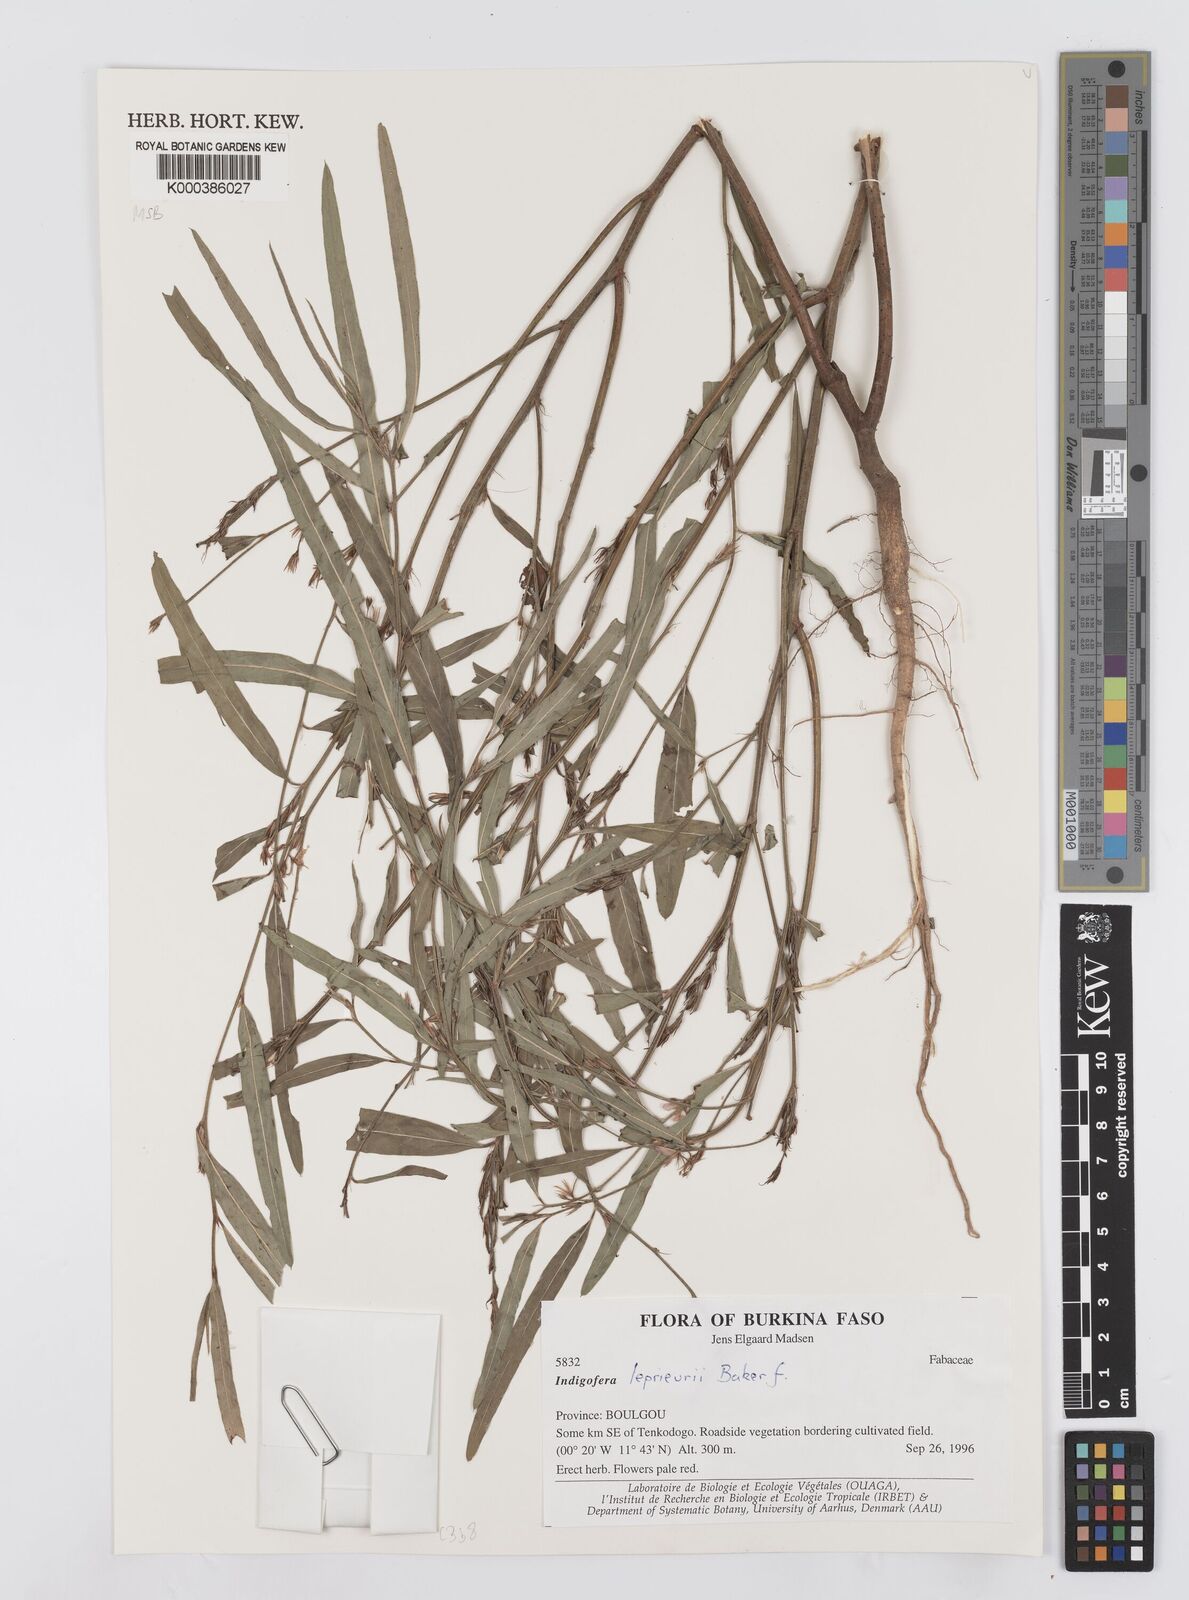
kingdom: Plantae
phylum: Tracheophyta
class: Magnoliopsida
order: Fabales
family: Fabaceae
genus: Indigofera
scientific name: Indigofera leprieurii
